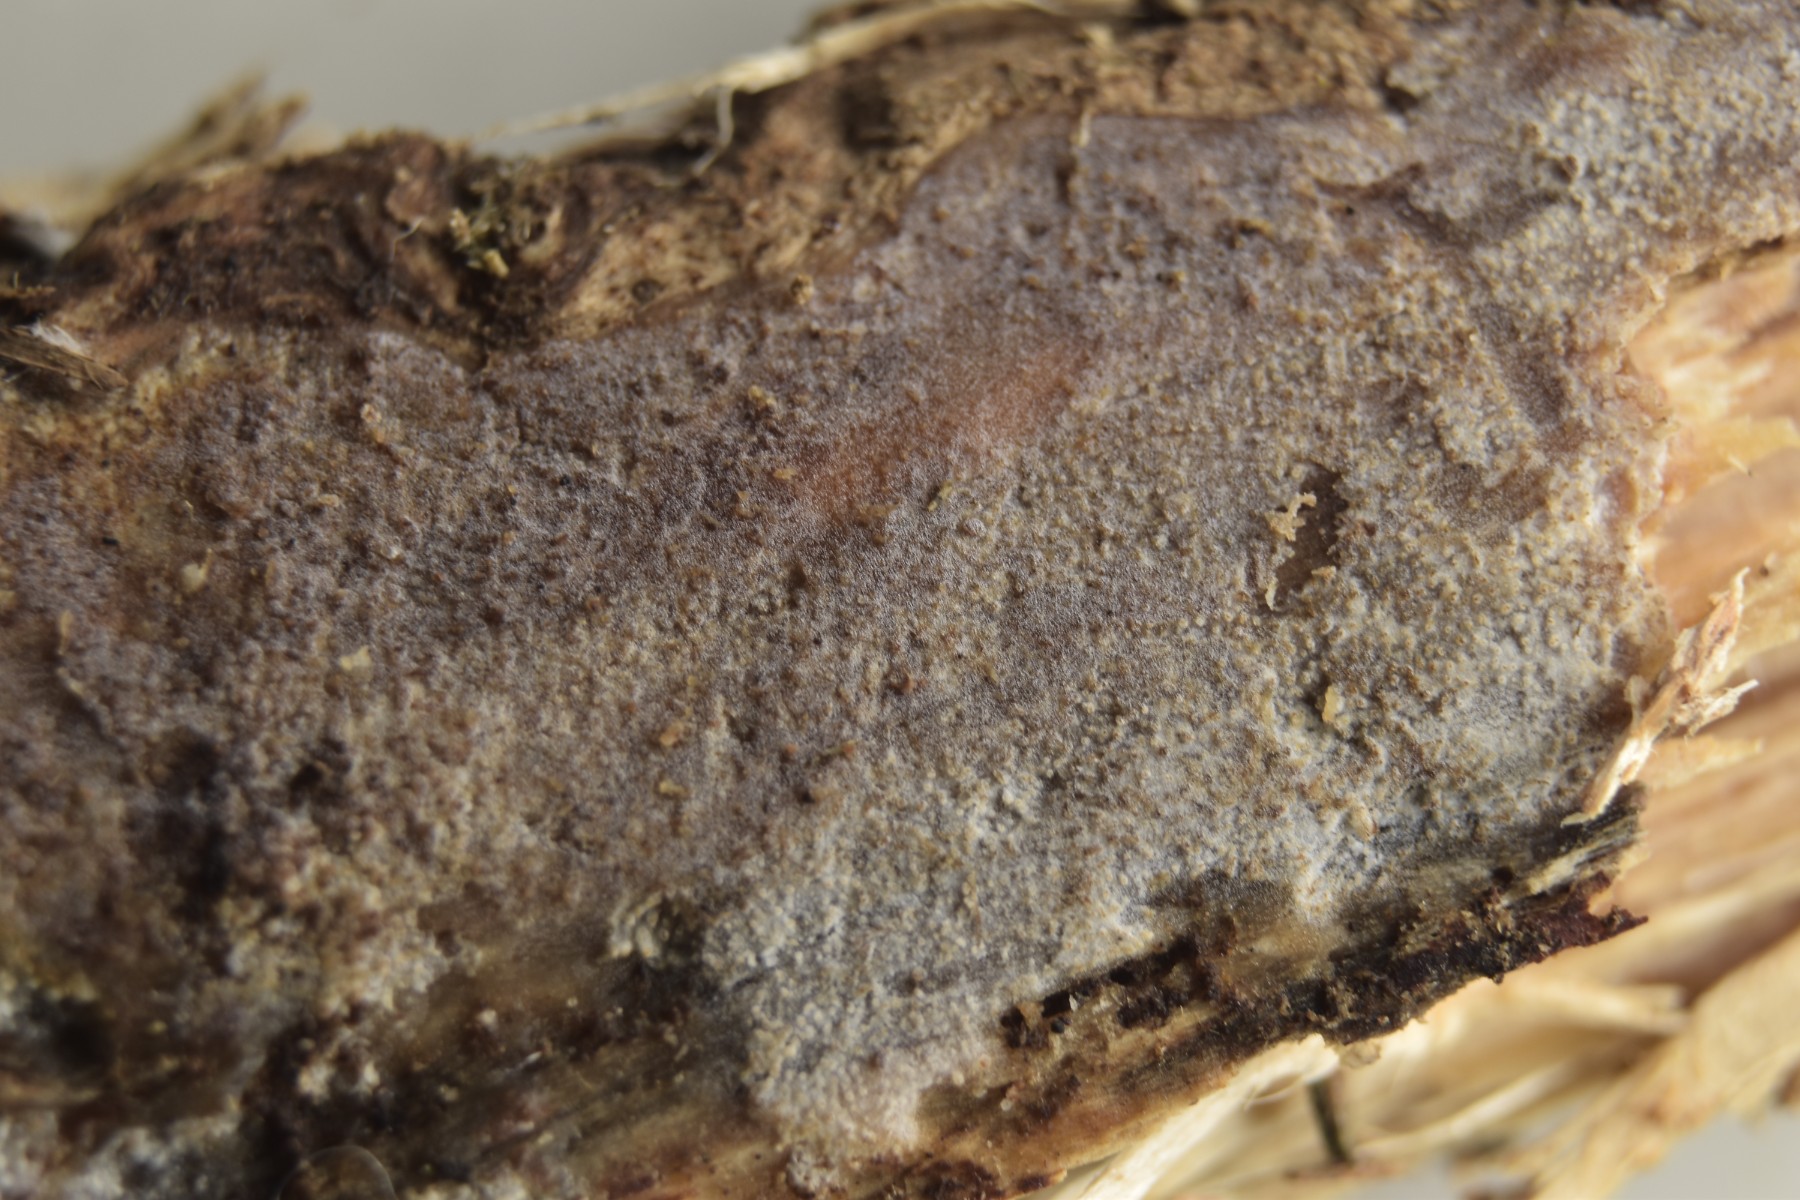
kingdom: Fungi
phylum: Basidiomycota
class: Agaricomycetes
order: Hymenochaetales
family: Rickenellaceae
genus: Resinicium
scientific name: Resinicium bicolor
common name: almindelig vokstand
